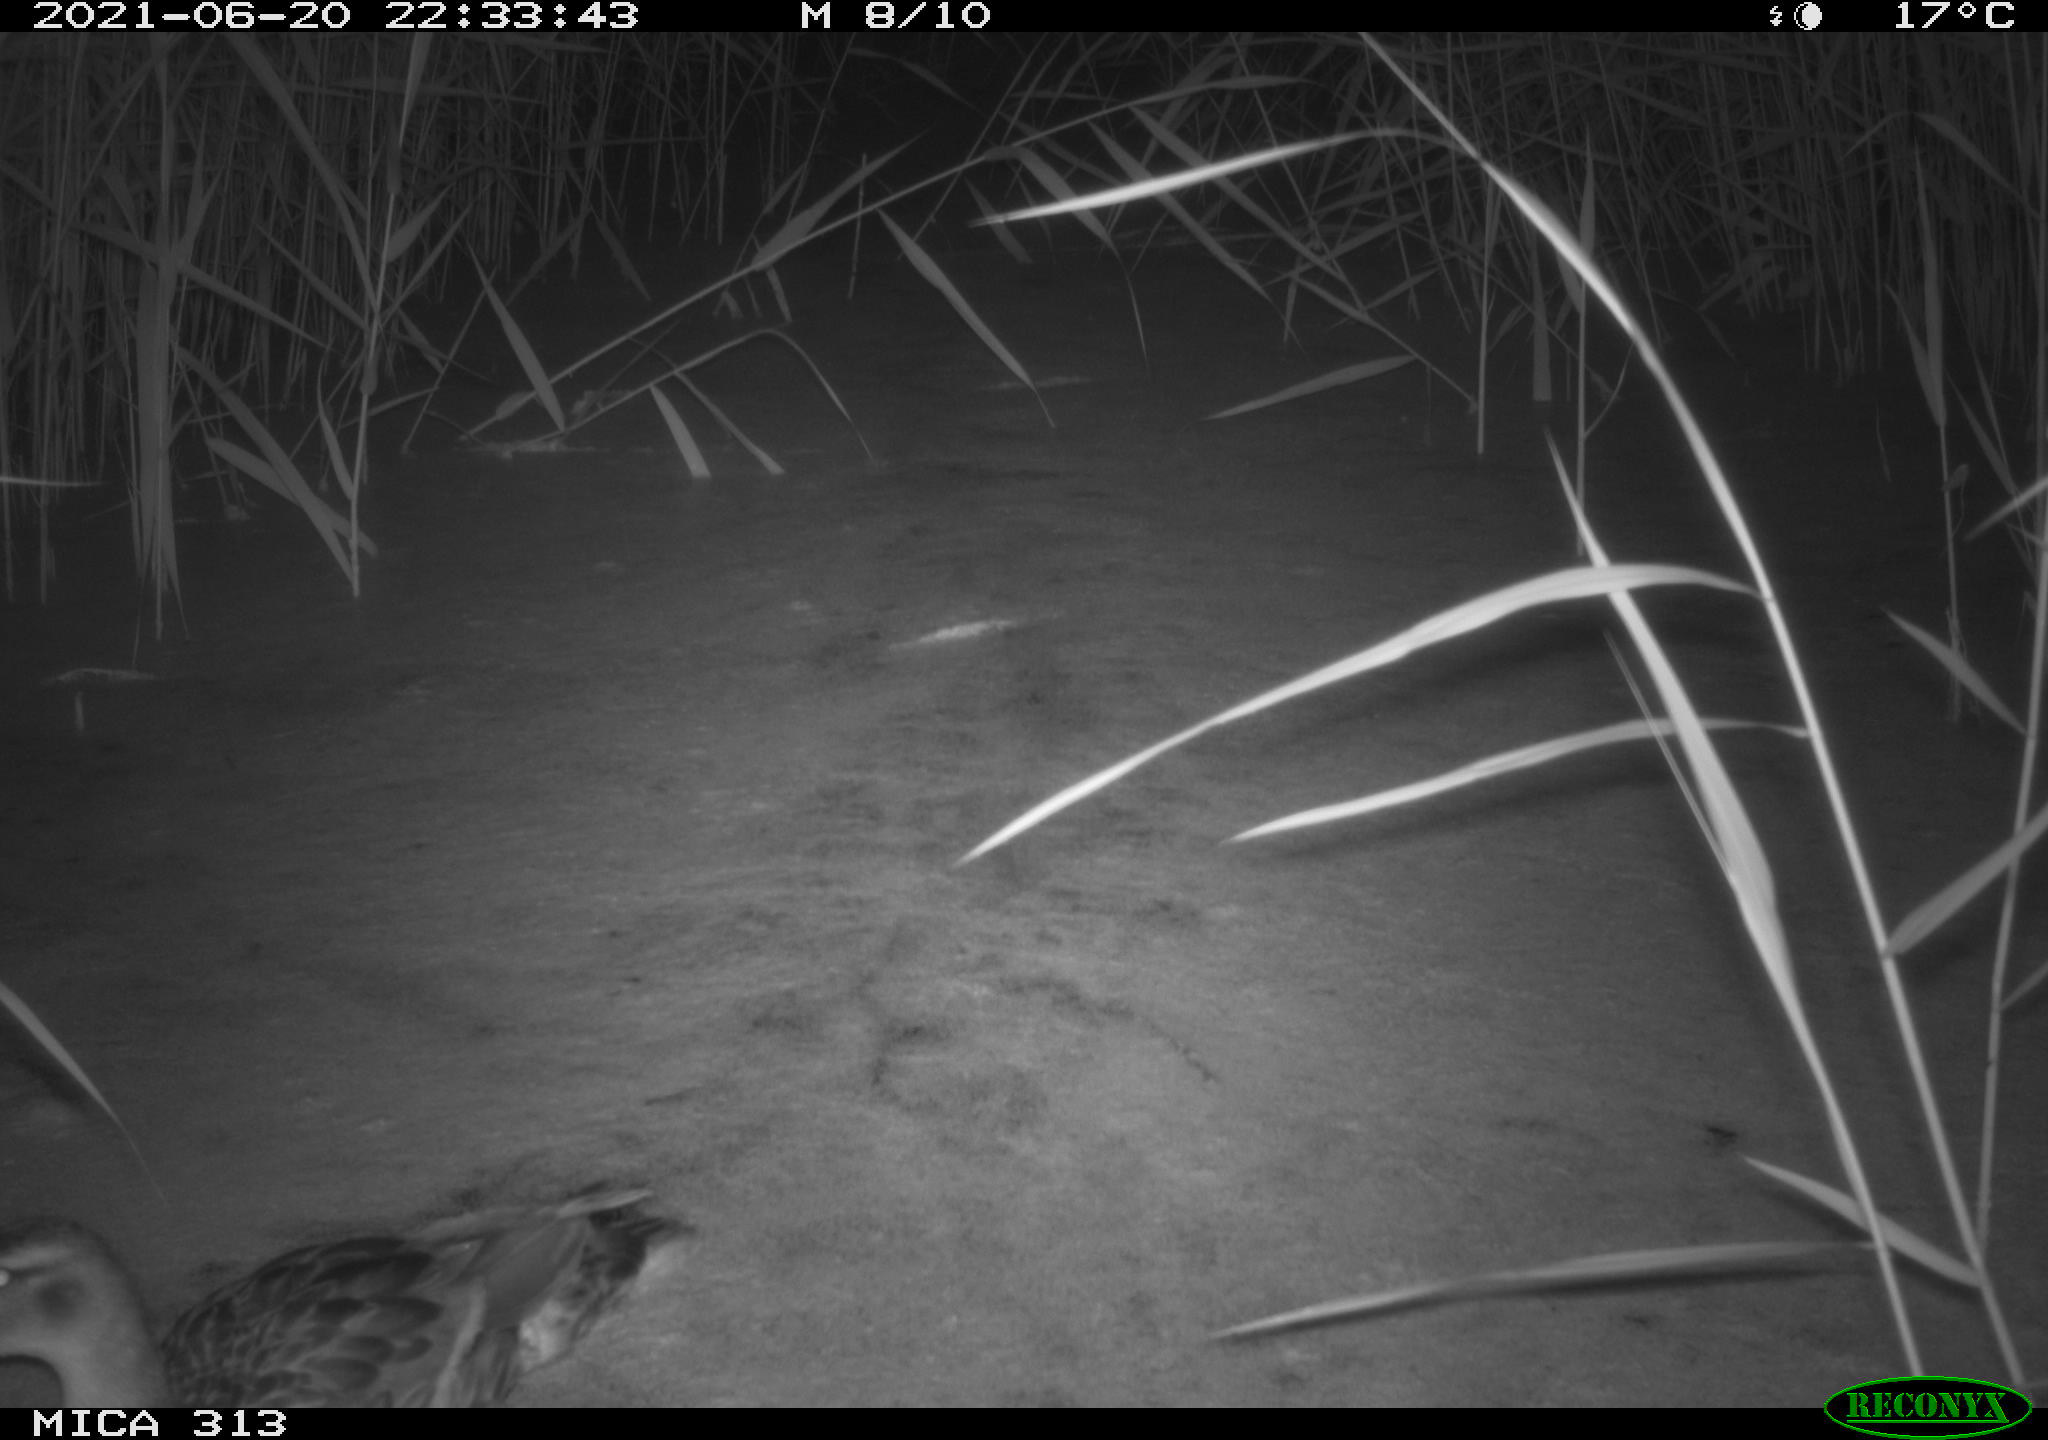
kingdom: Animalia
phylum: Chordata
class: Aves
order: Anseriformes
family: Anatidae
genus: Anas
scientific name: Anas
